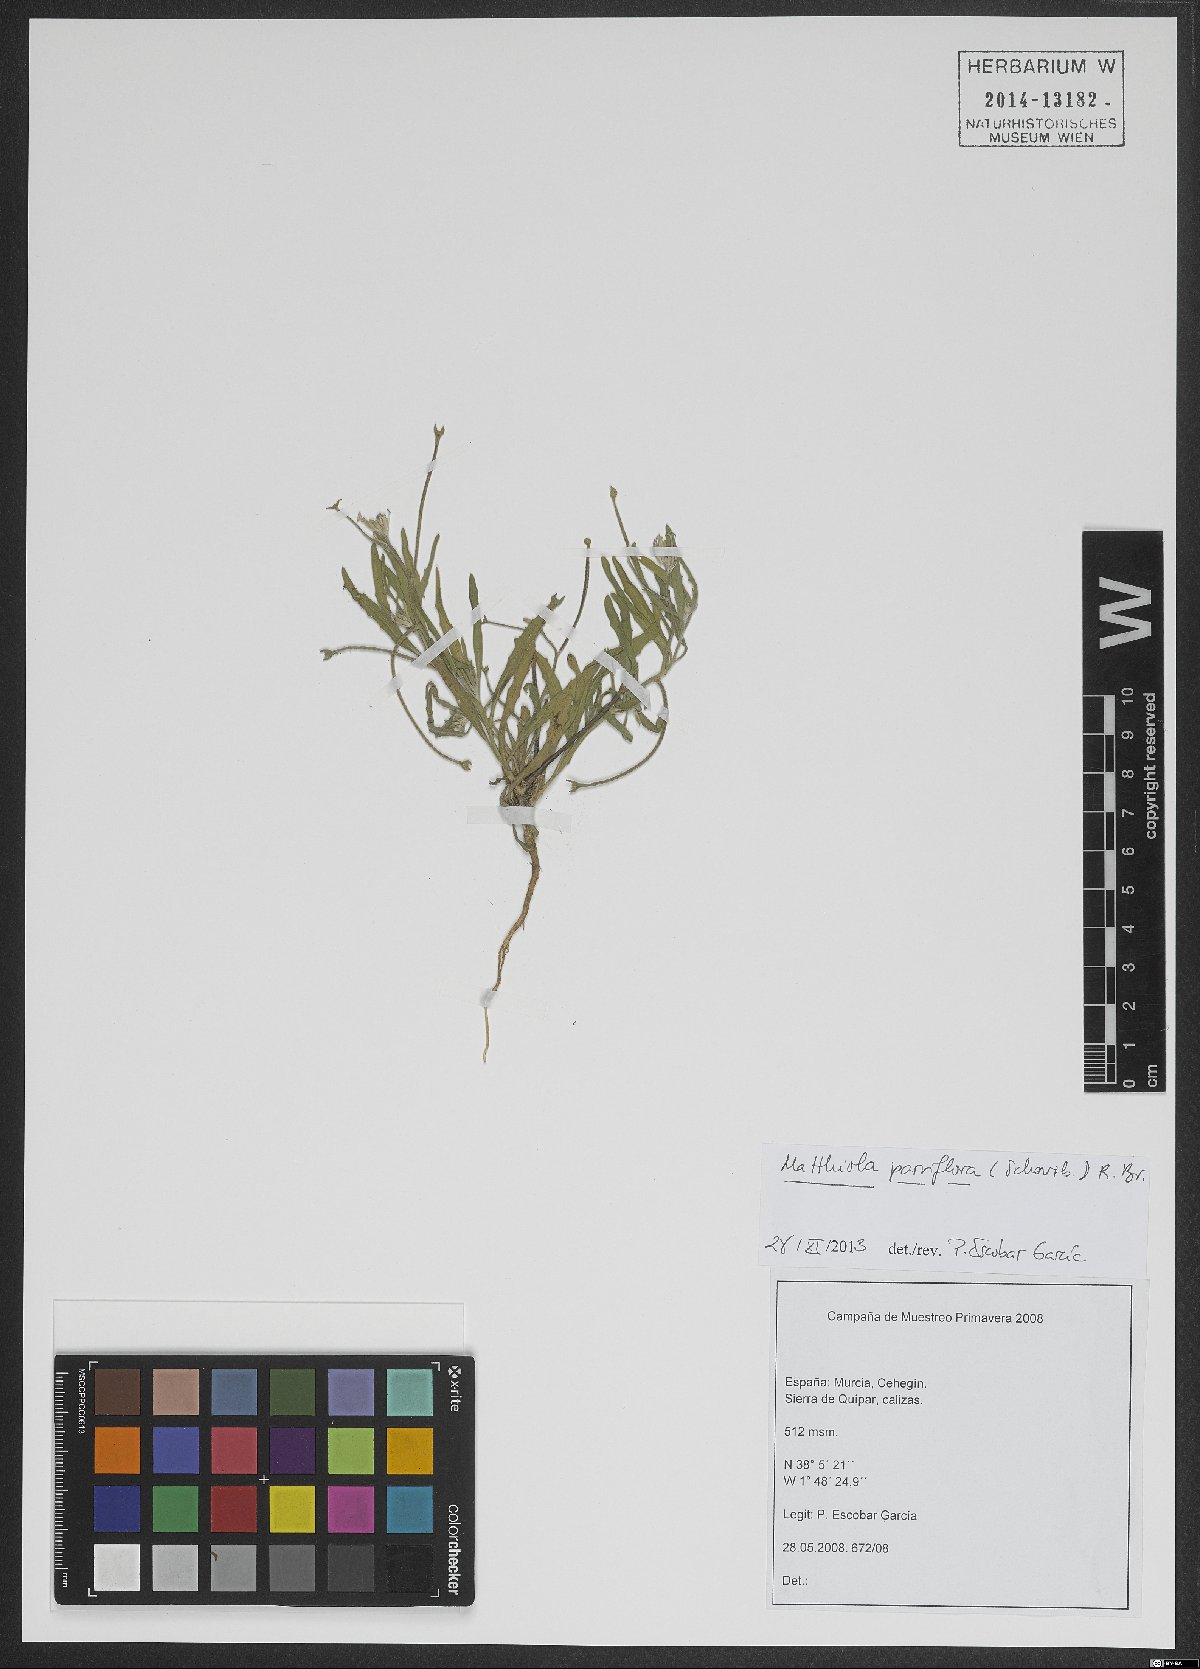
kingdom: Plantae
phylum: Tracheophyta
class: Magnoliopsida
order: Brassicales
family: Brassicaceae
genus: Matthiola
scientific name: Matthiola parviflora
